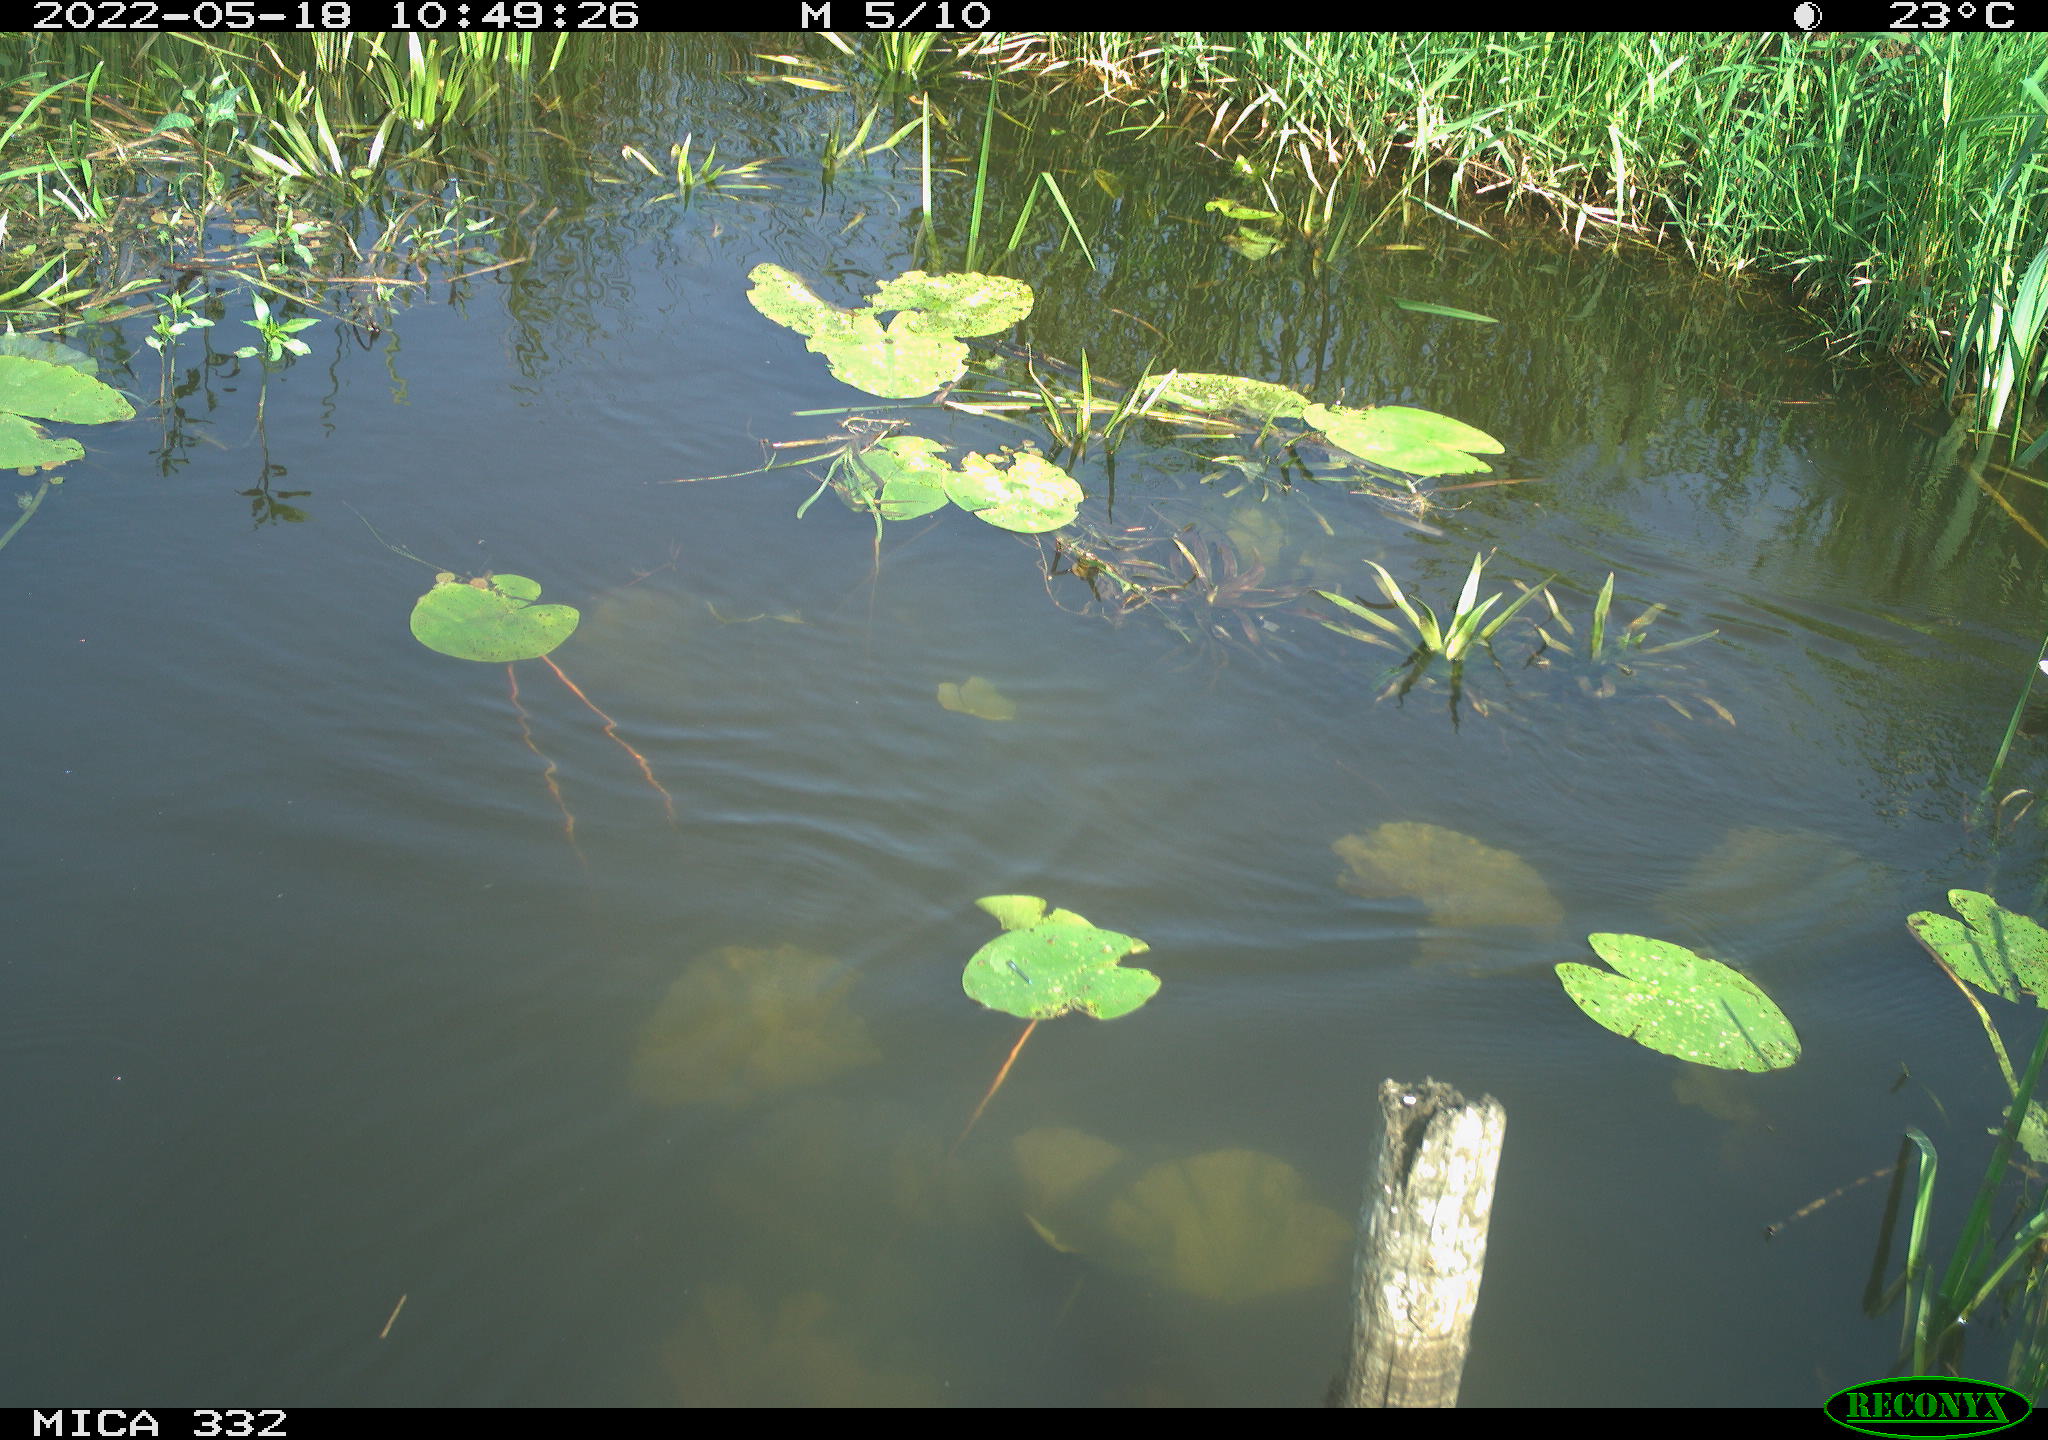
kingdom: Animalia
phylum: Chordata
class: Aves
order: Anseriformes
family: Anatidae
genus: Anas
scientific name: Anas platyrhynchos
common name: Mallard
